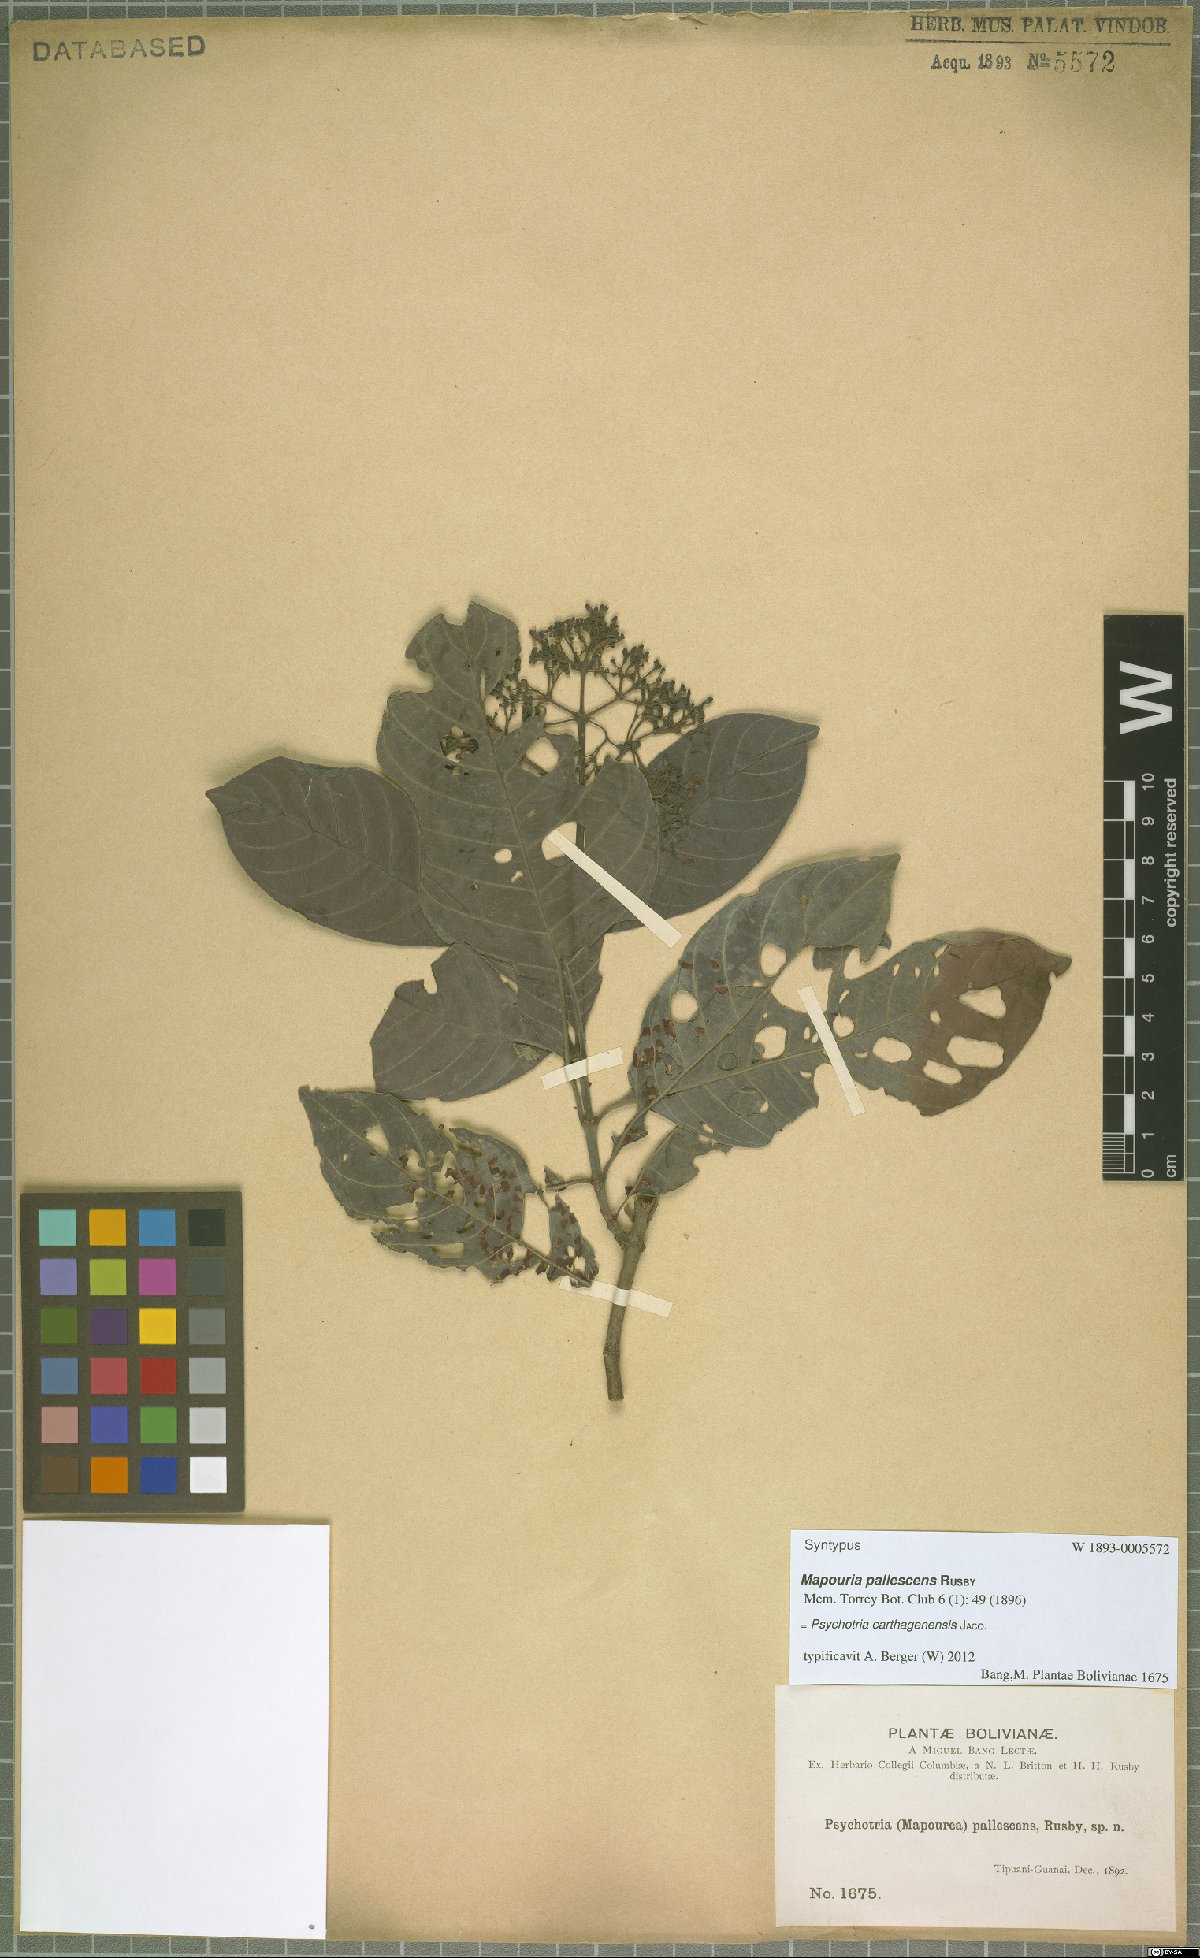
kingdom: Plantae
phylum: Tracheophyta
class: Magnoliopsida
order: Gentianales
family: Rubiaceae
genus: Psychotria
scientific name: Psychotria carthagenensis
